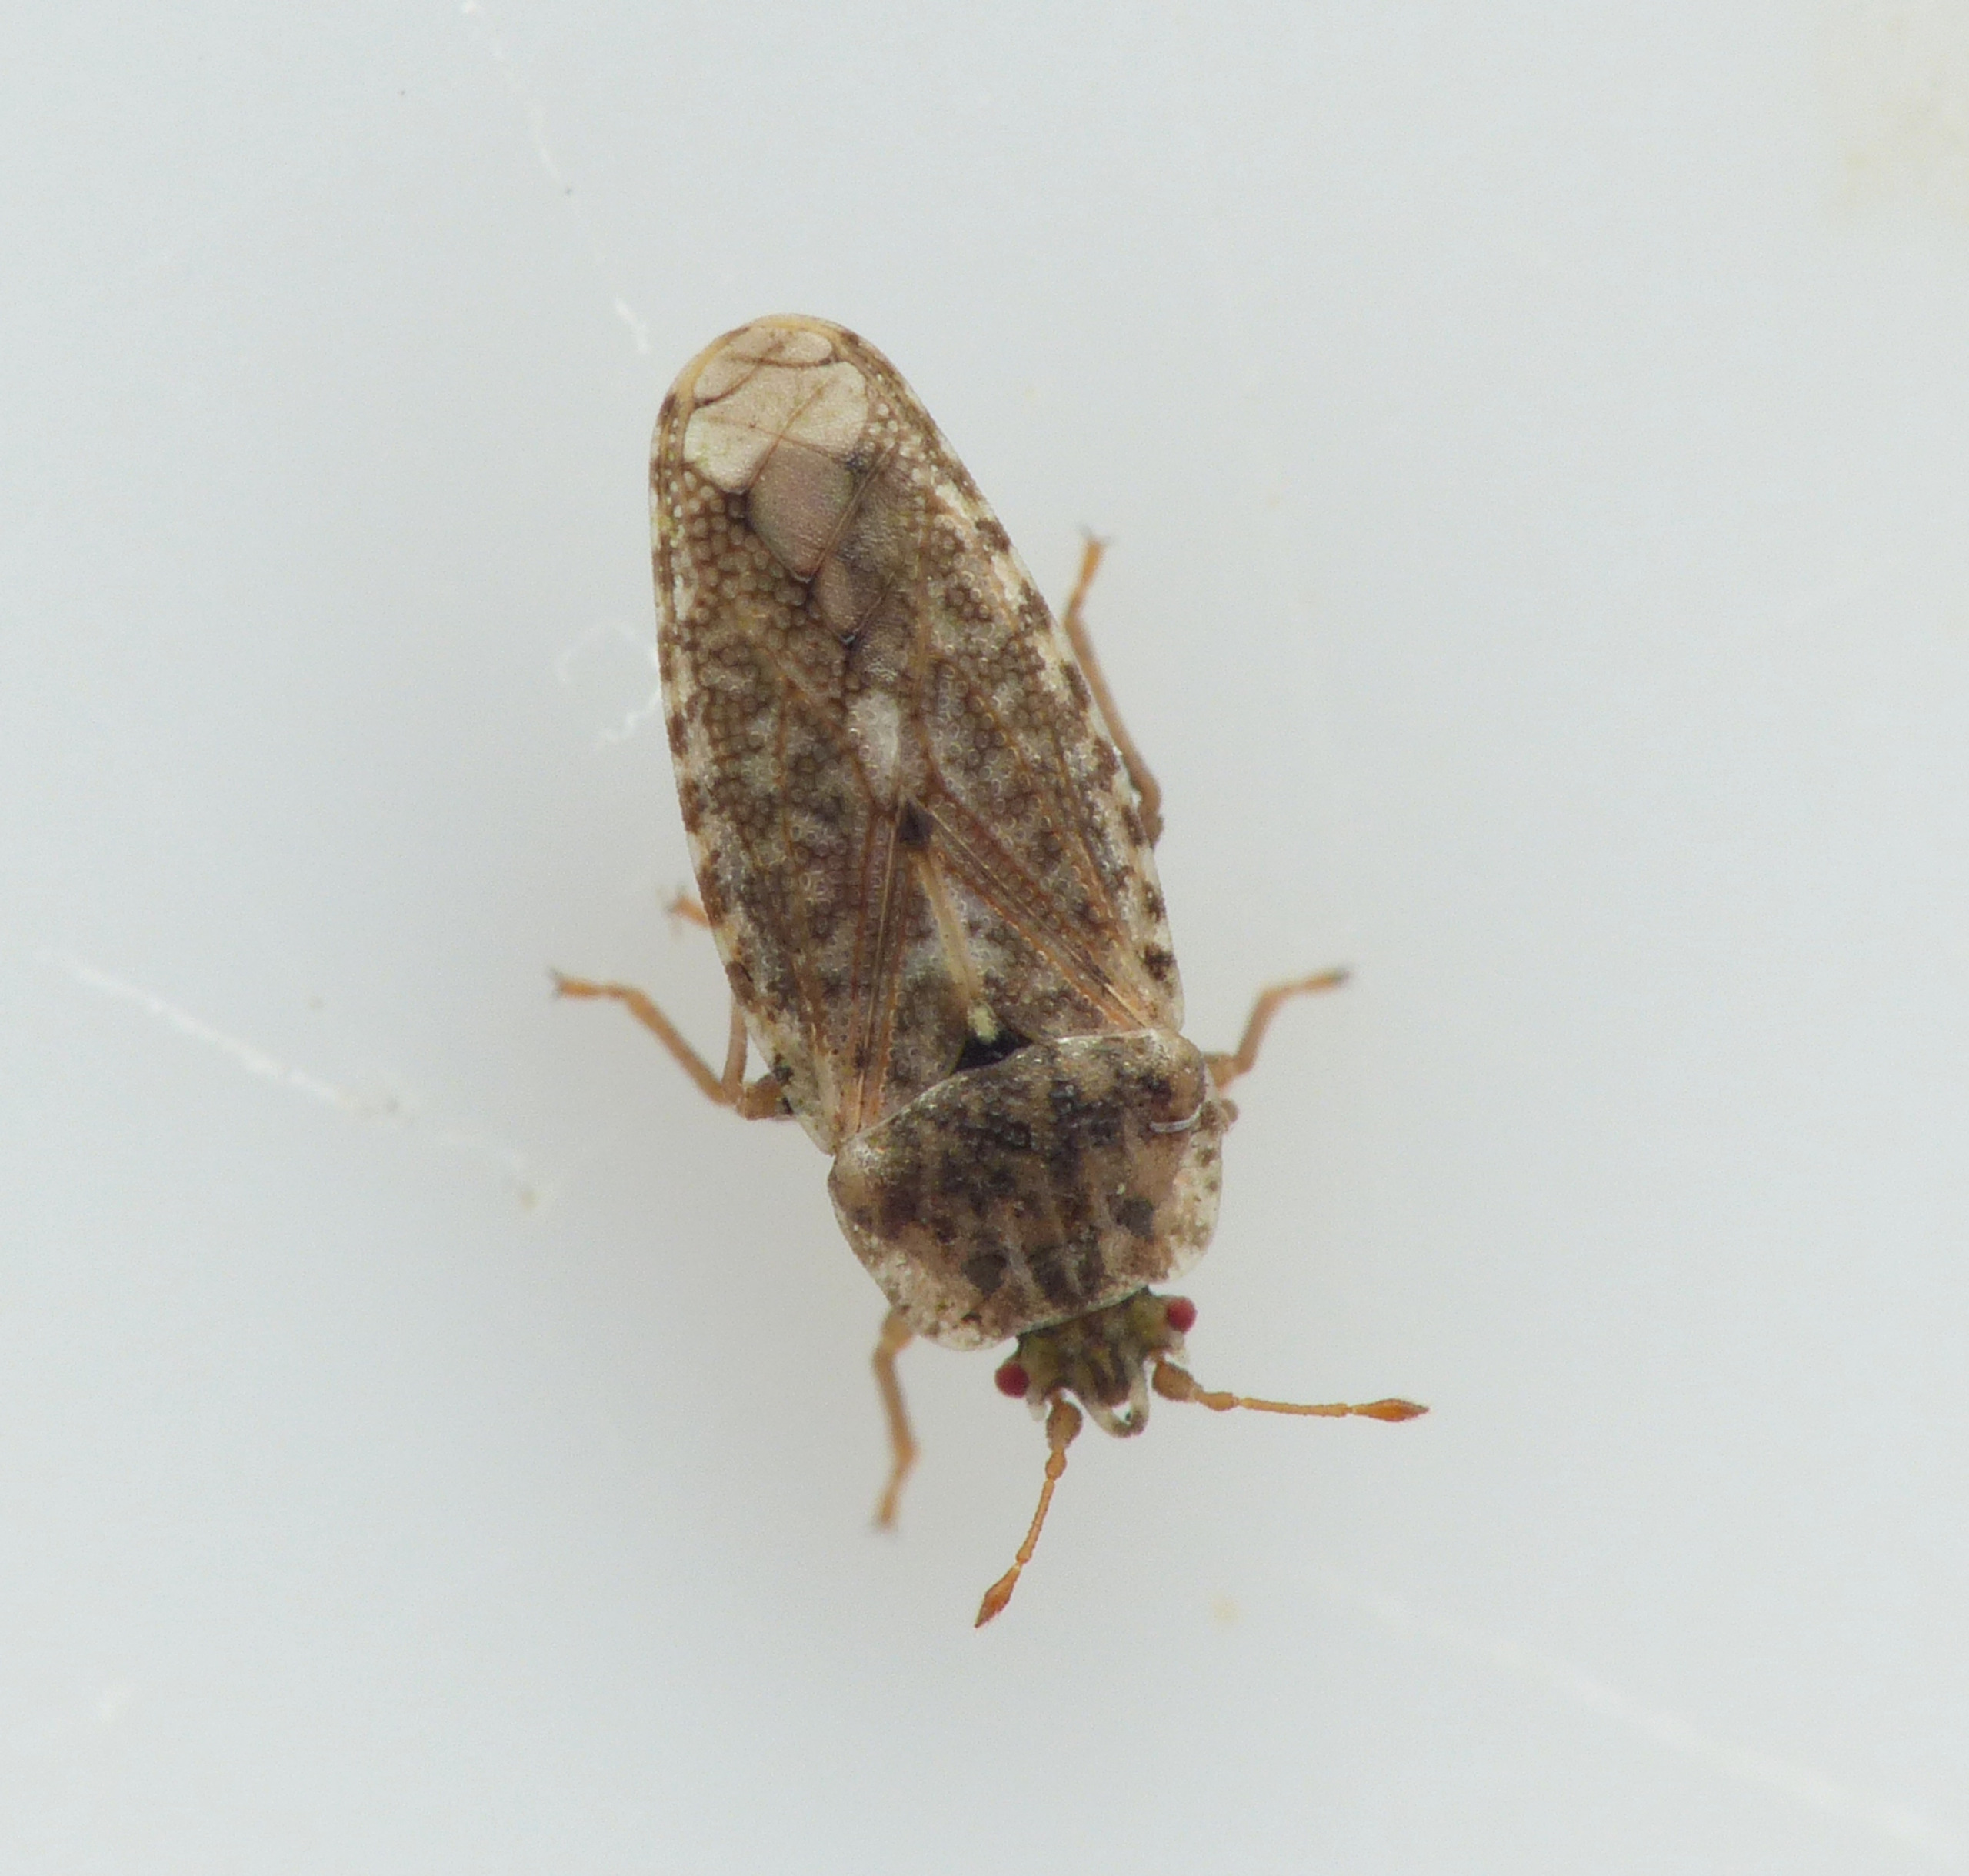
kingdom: Animalia
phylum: Arthropoda
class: Insecta
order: Hemiptera
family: Piesmatidae
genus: Parapiesma
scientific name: Parapiesma quadratum
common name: Mældetæge
